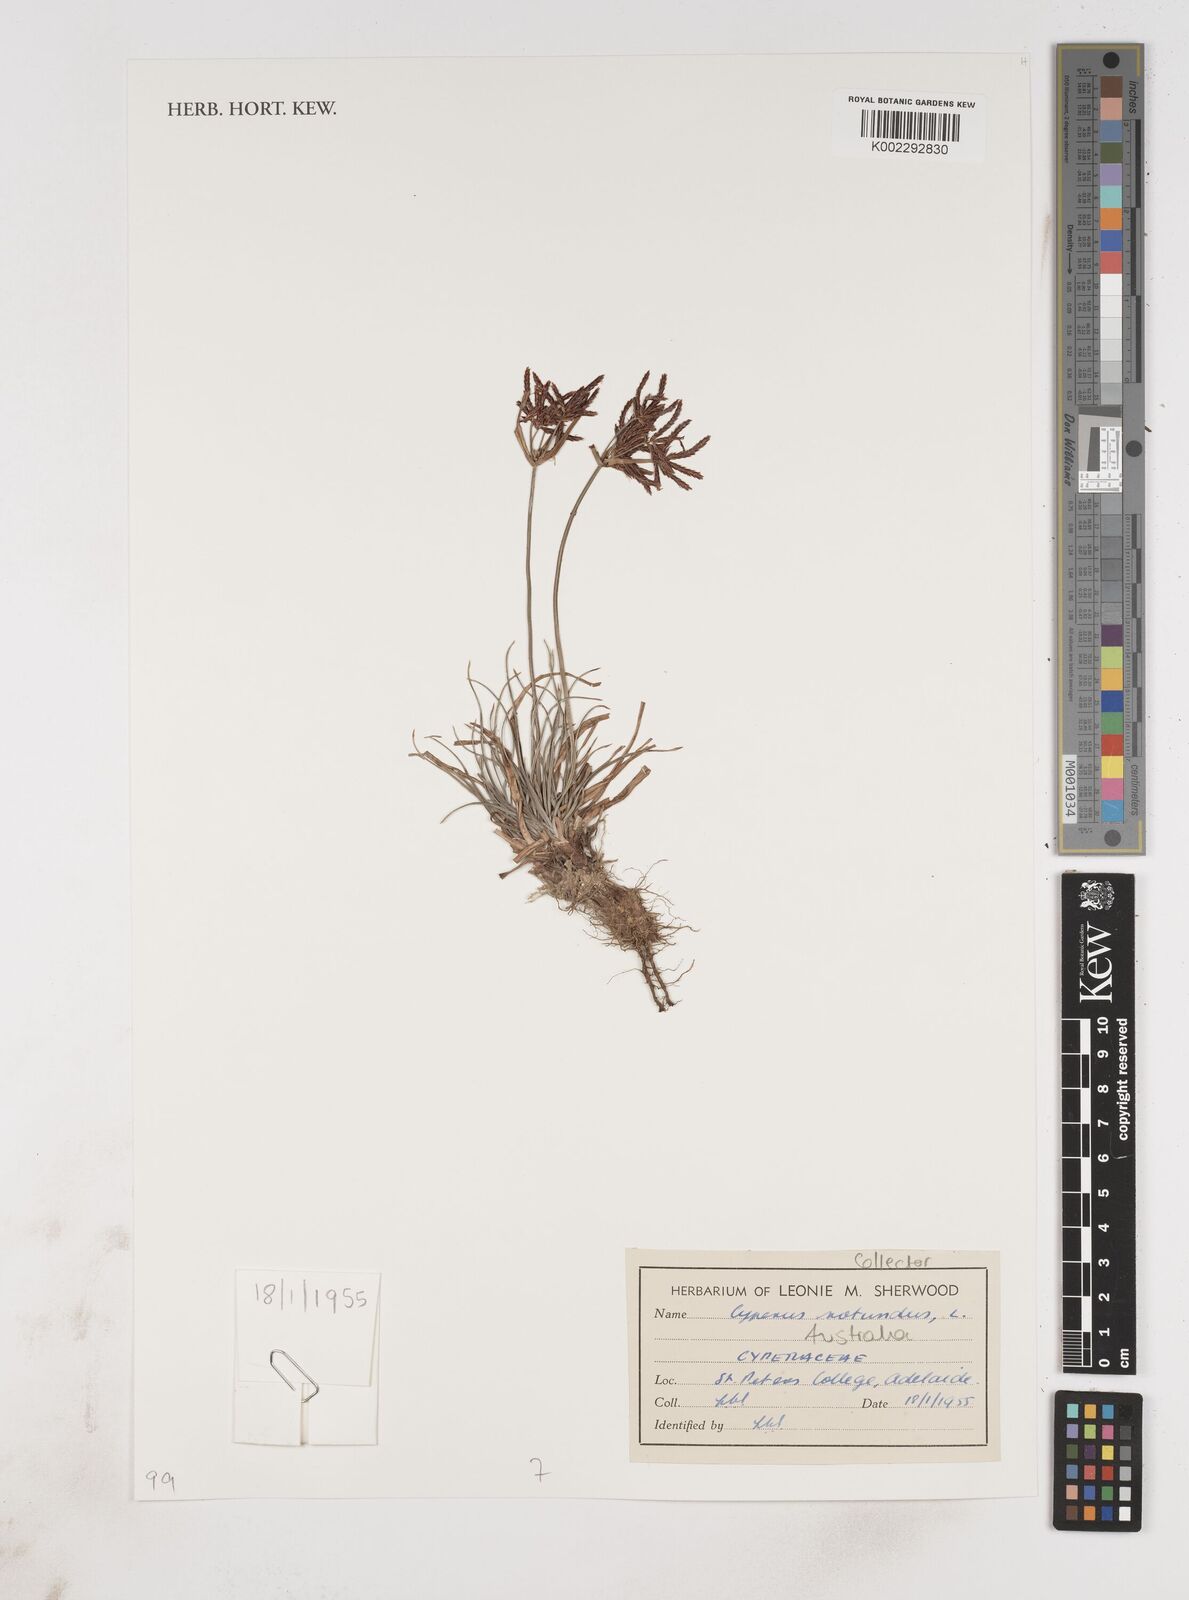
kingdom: Plantae
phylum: Tracheophyta
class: Liliopsida
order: Poales
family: Cyperaceae
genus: Cyperus
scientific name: Cyperus rotundus
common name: Nutgrass
